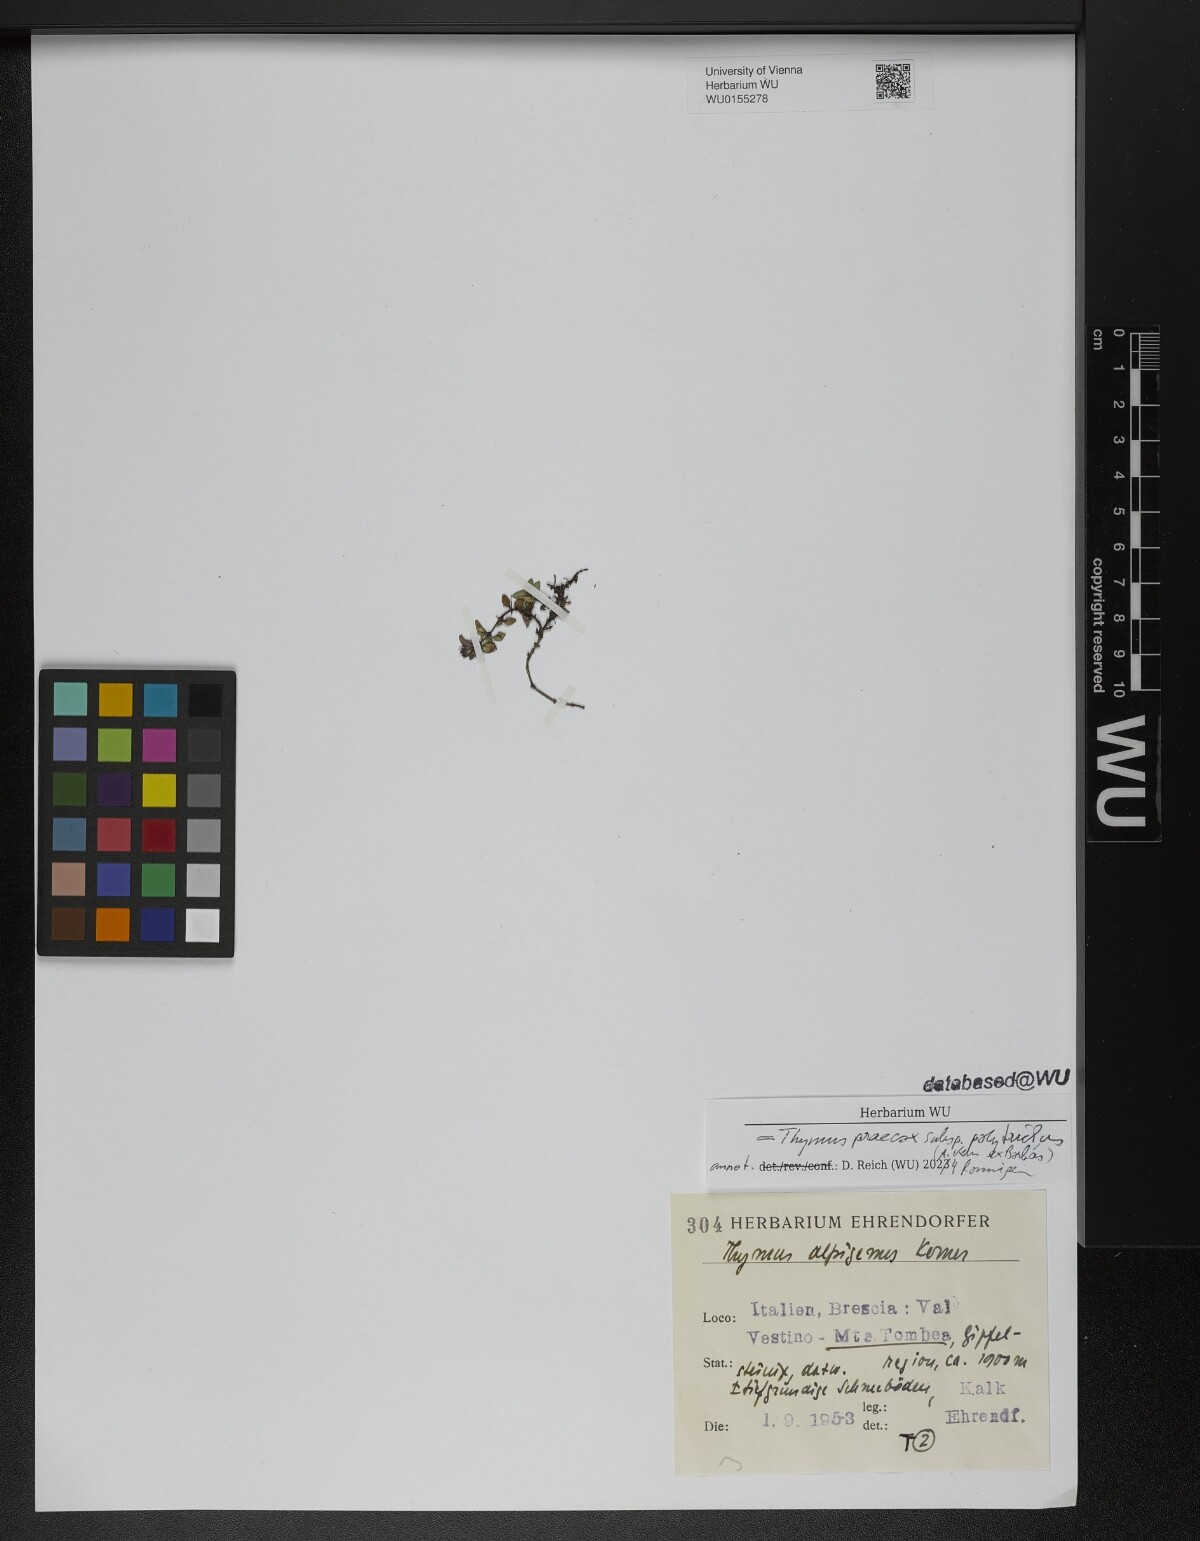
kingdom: Plantae
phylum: Tracheophyta
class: Magnoliopsida
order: Lamiales
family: Lamiaceae
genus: Thymus
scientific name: Thymus praecox
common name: Wild thyme
